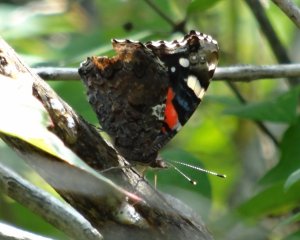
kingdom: Animalia
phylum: Arthropoda
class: Insecta
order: Lepidoptera
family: Nymphalidae
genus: Vanessa
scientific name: Vanessa atalanta
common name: Red Admiral
